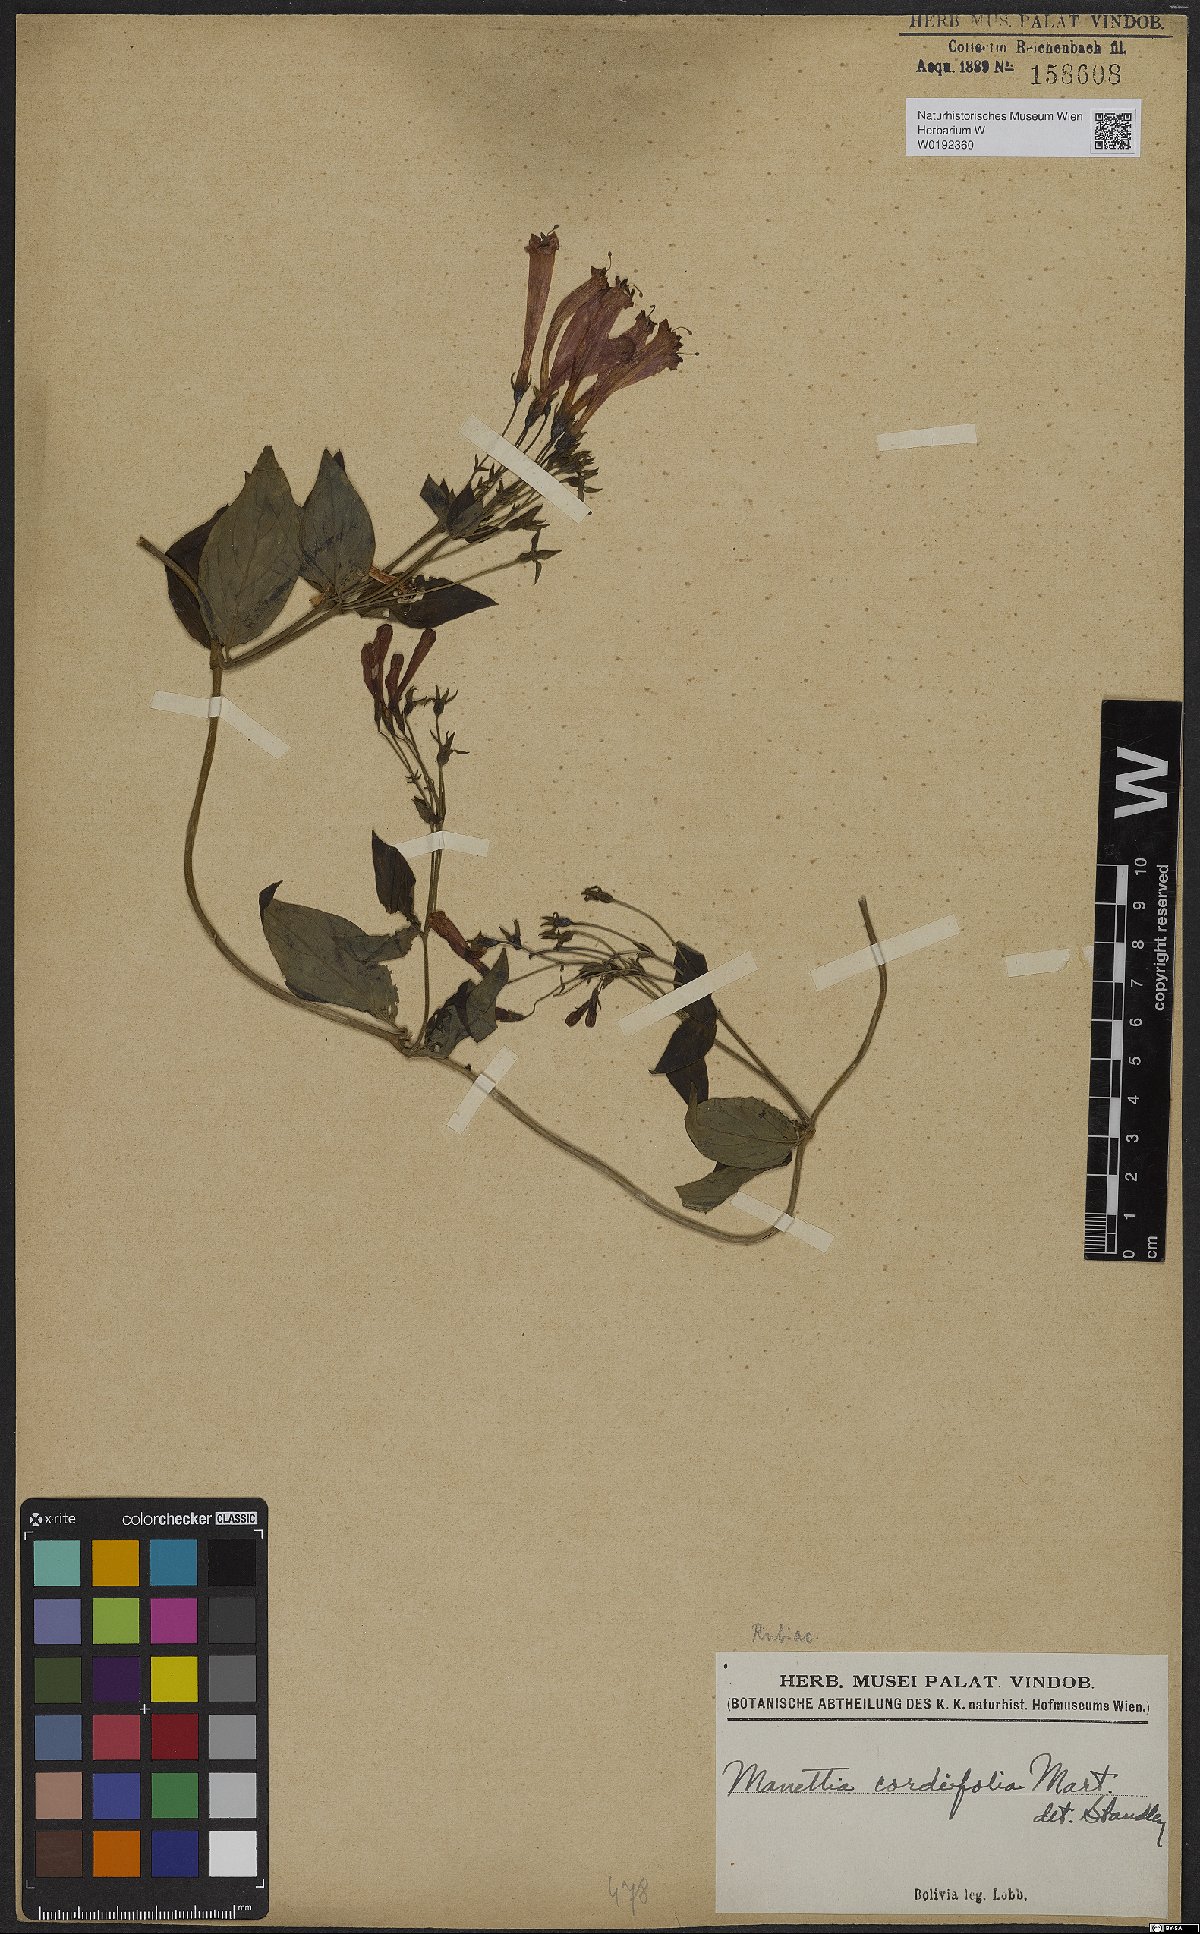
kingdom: Plantae
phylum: Tracheophyta
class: Magnoliopsida
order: Gentianales
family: Rubiaceae
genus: Manettia
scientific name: Manettia cordifolia
